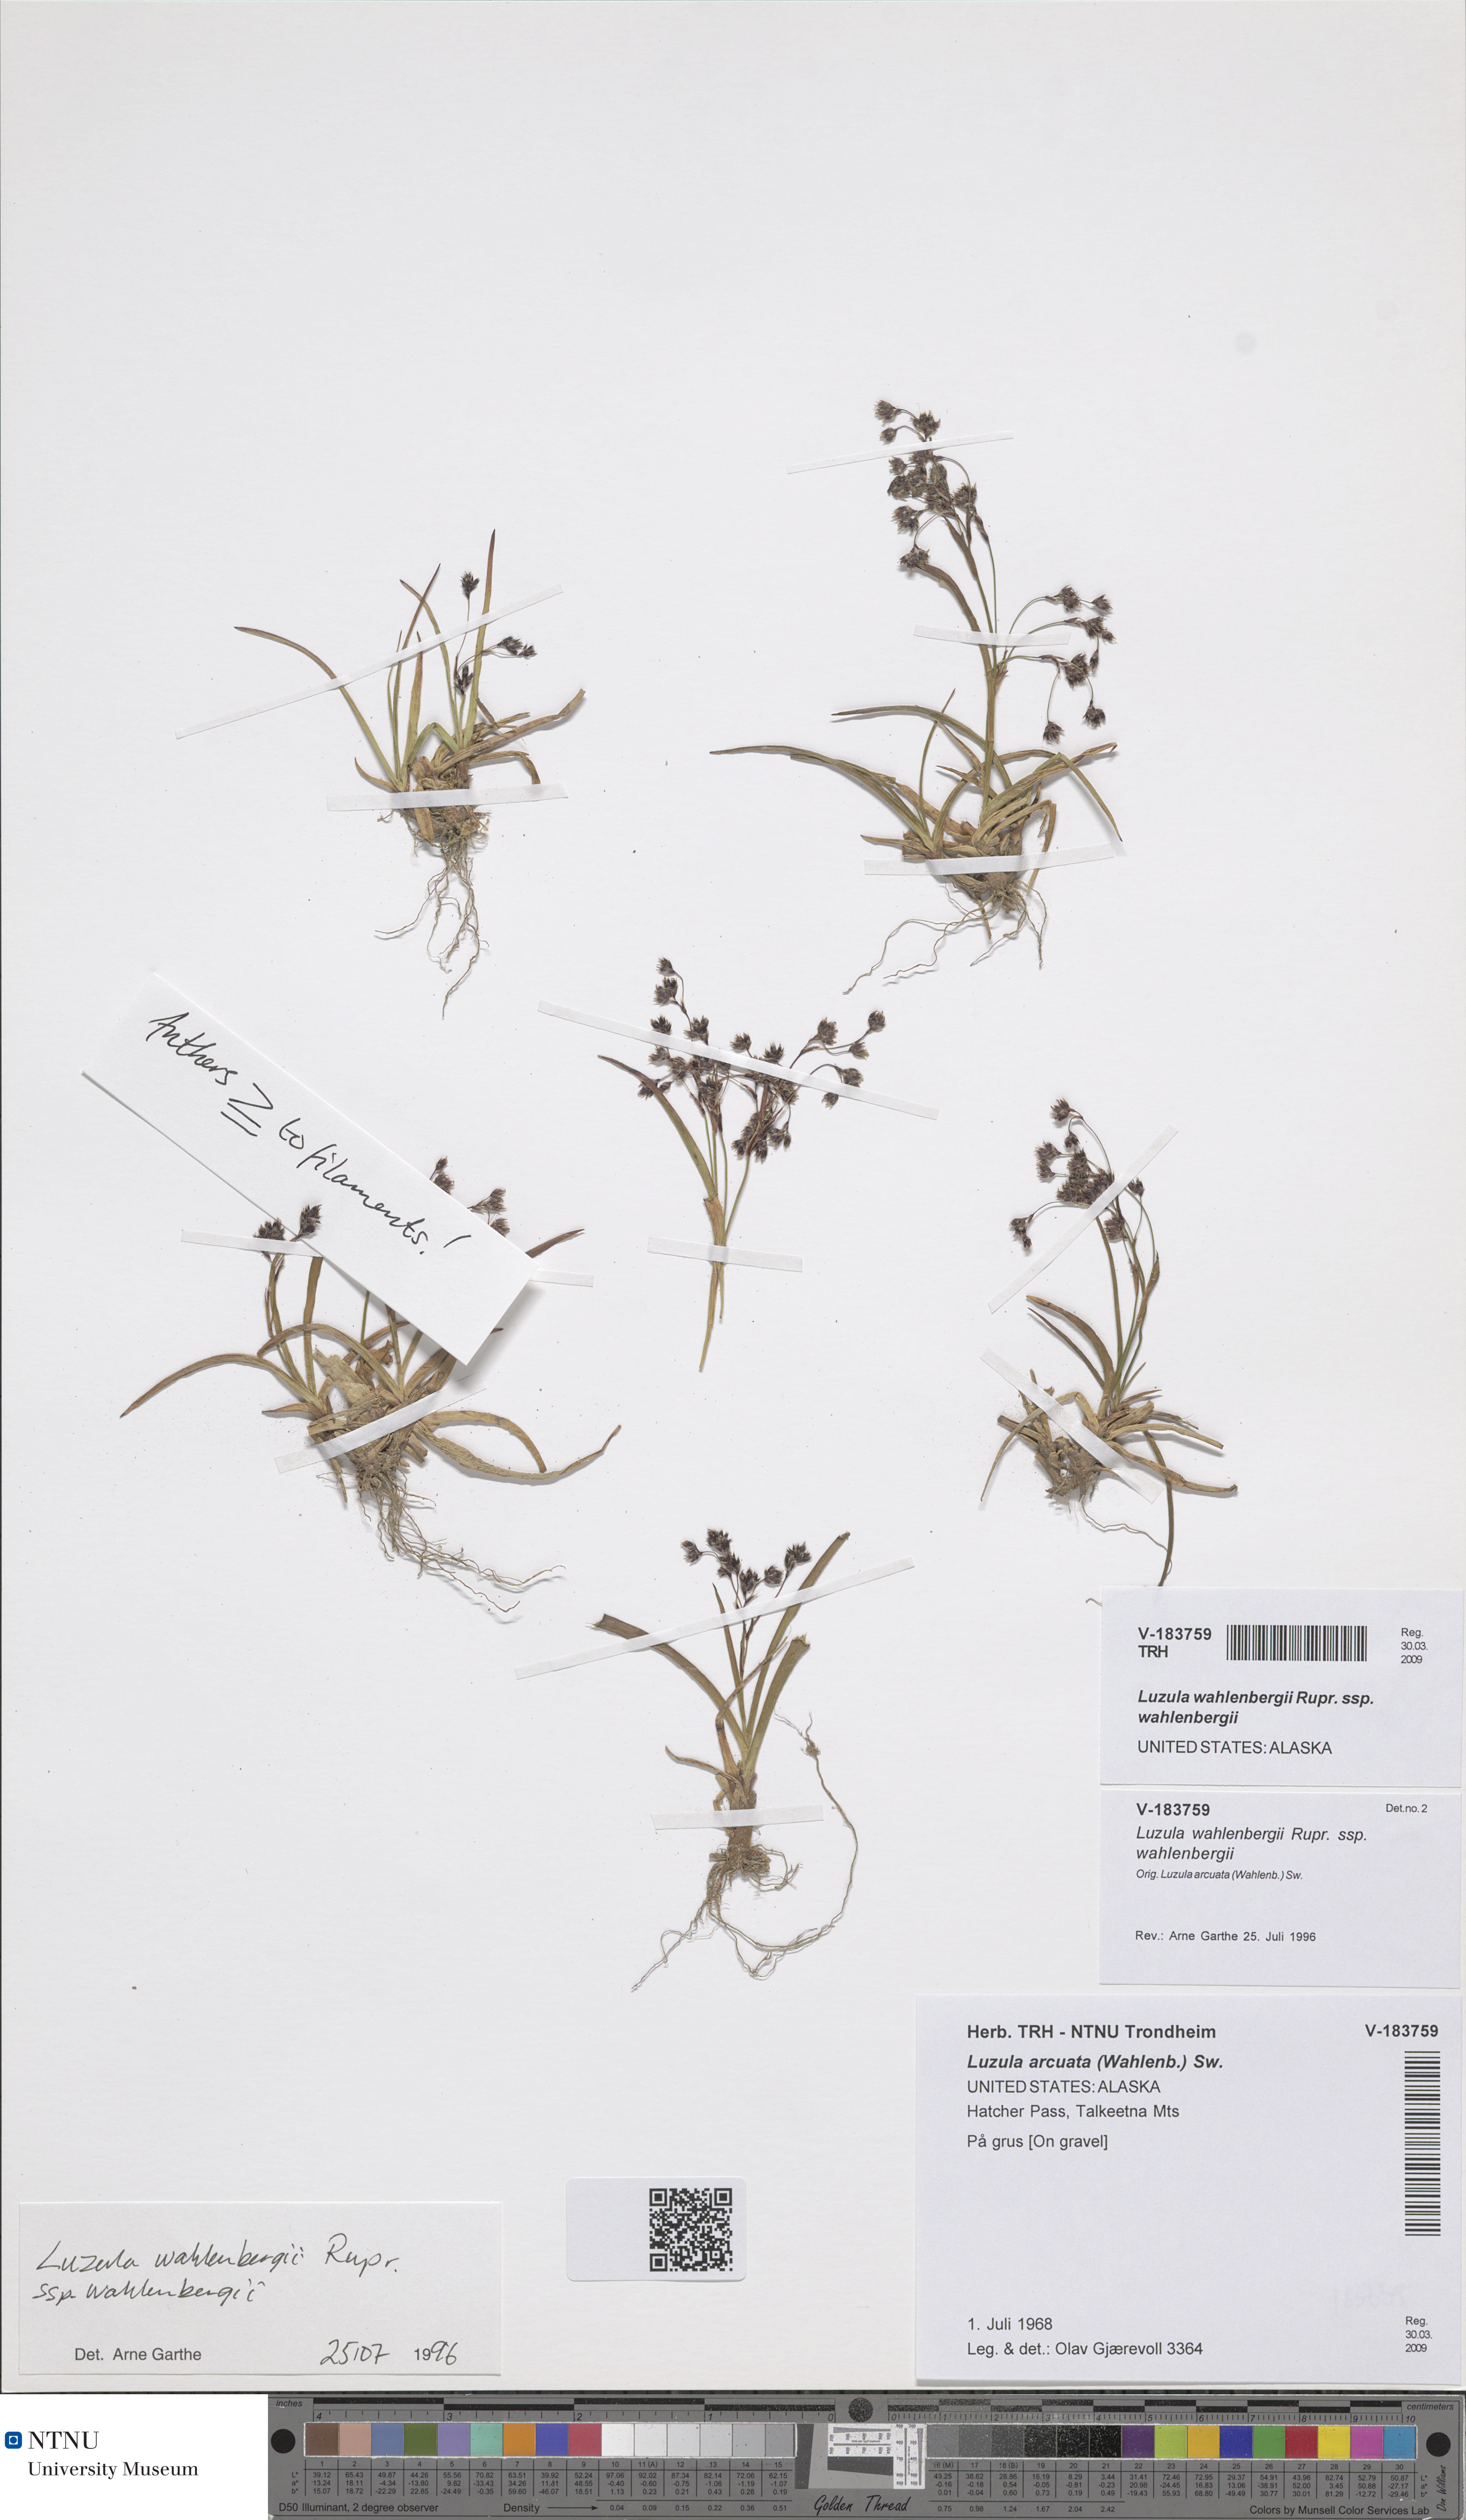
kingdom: Plantae
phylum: Tracheophyta
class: Liliopsida
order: Poales
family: Juncaceae
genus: Luzula
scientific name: Luzula wahlenbergii
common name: Wahlenberg's wood-rush
